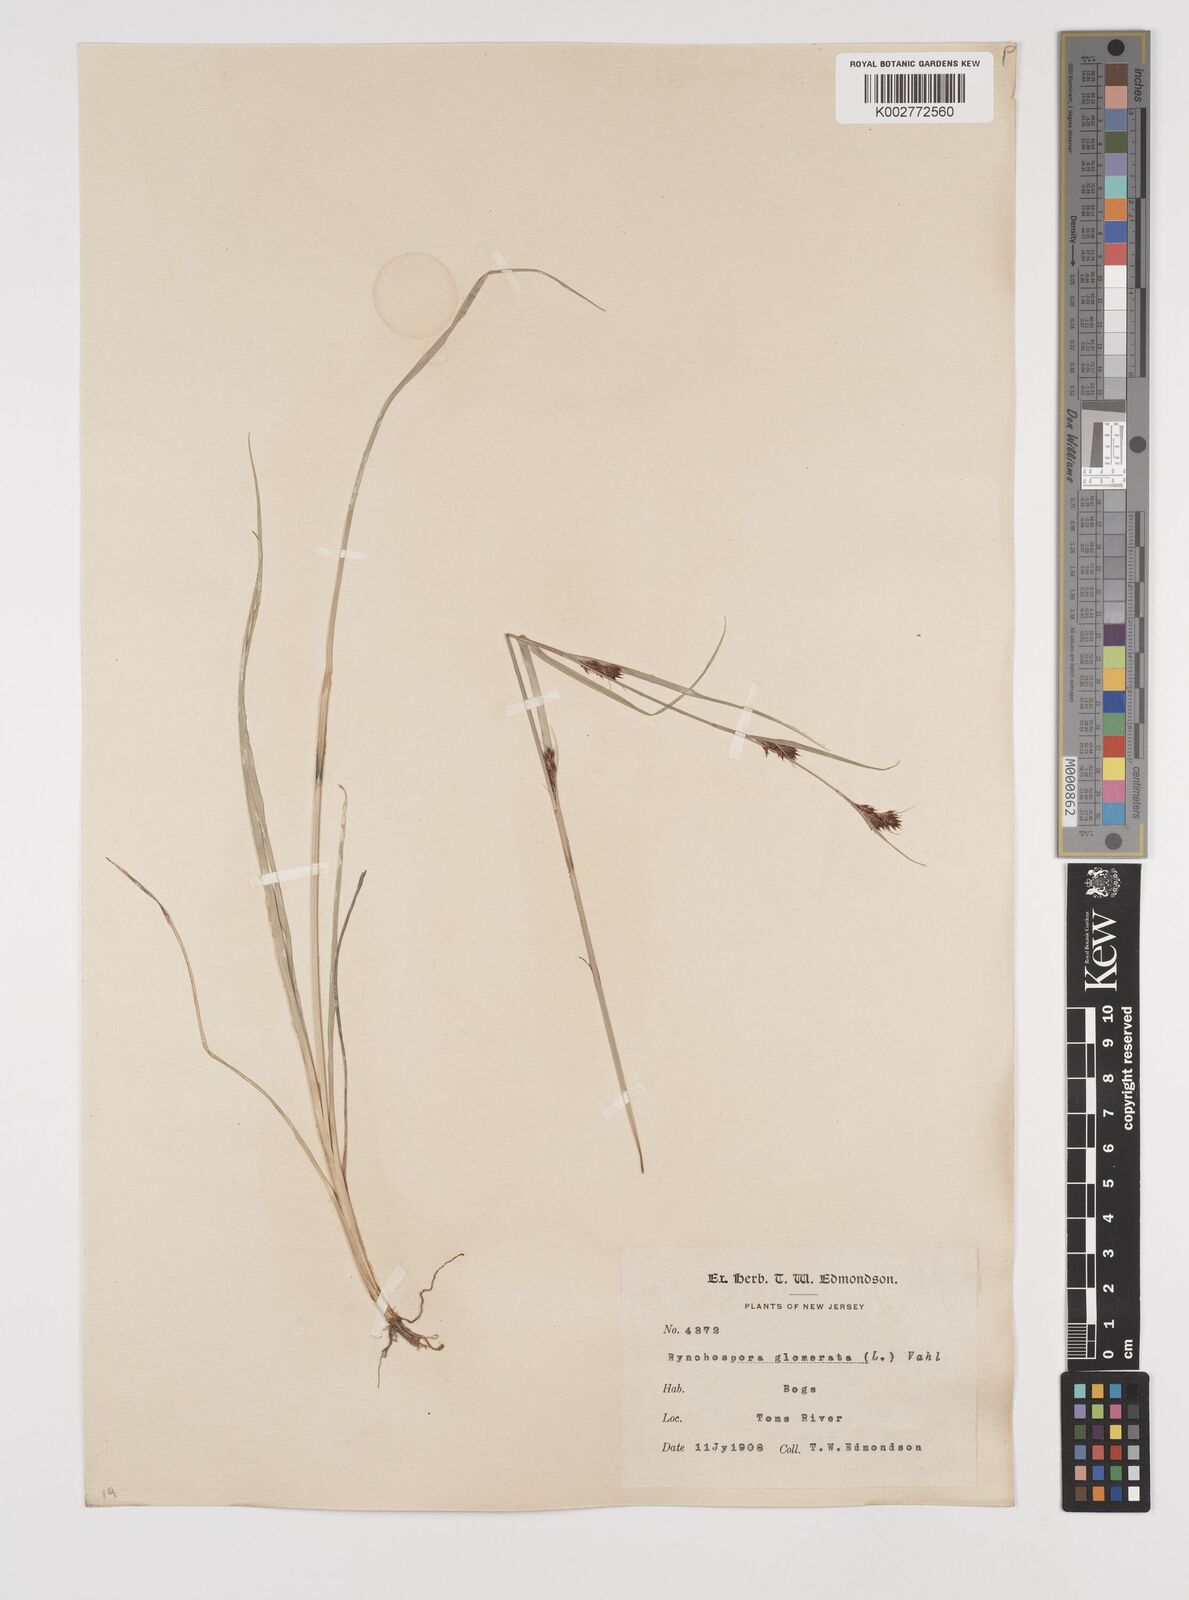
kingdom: Plantae
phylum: Tracheophyta
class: Liliopsida
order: Poales
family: Cyperaceae
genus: Rhynchospora
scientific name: Rhynchospora glomerata
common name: Cluster beak sedge
